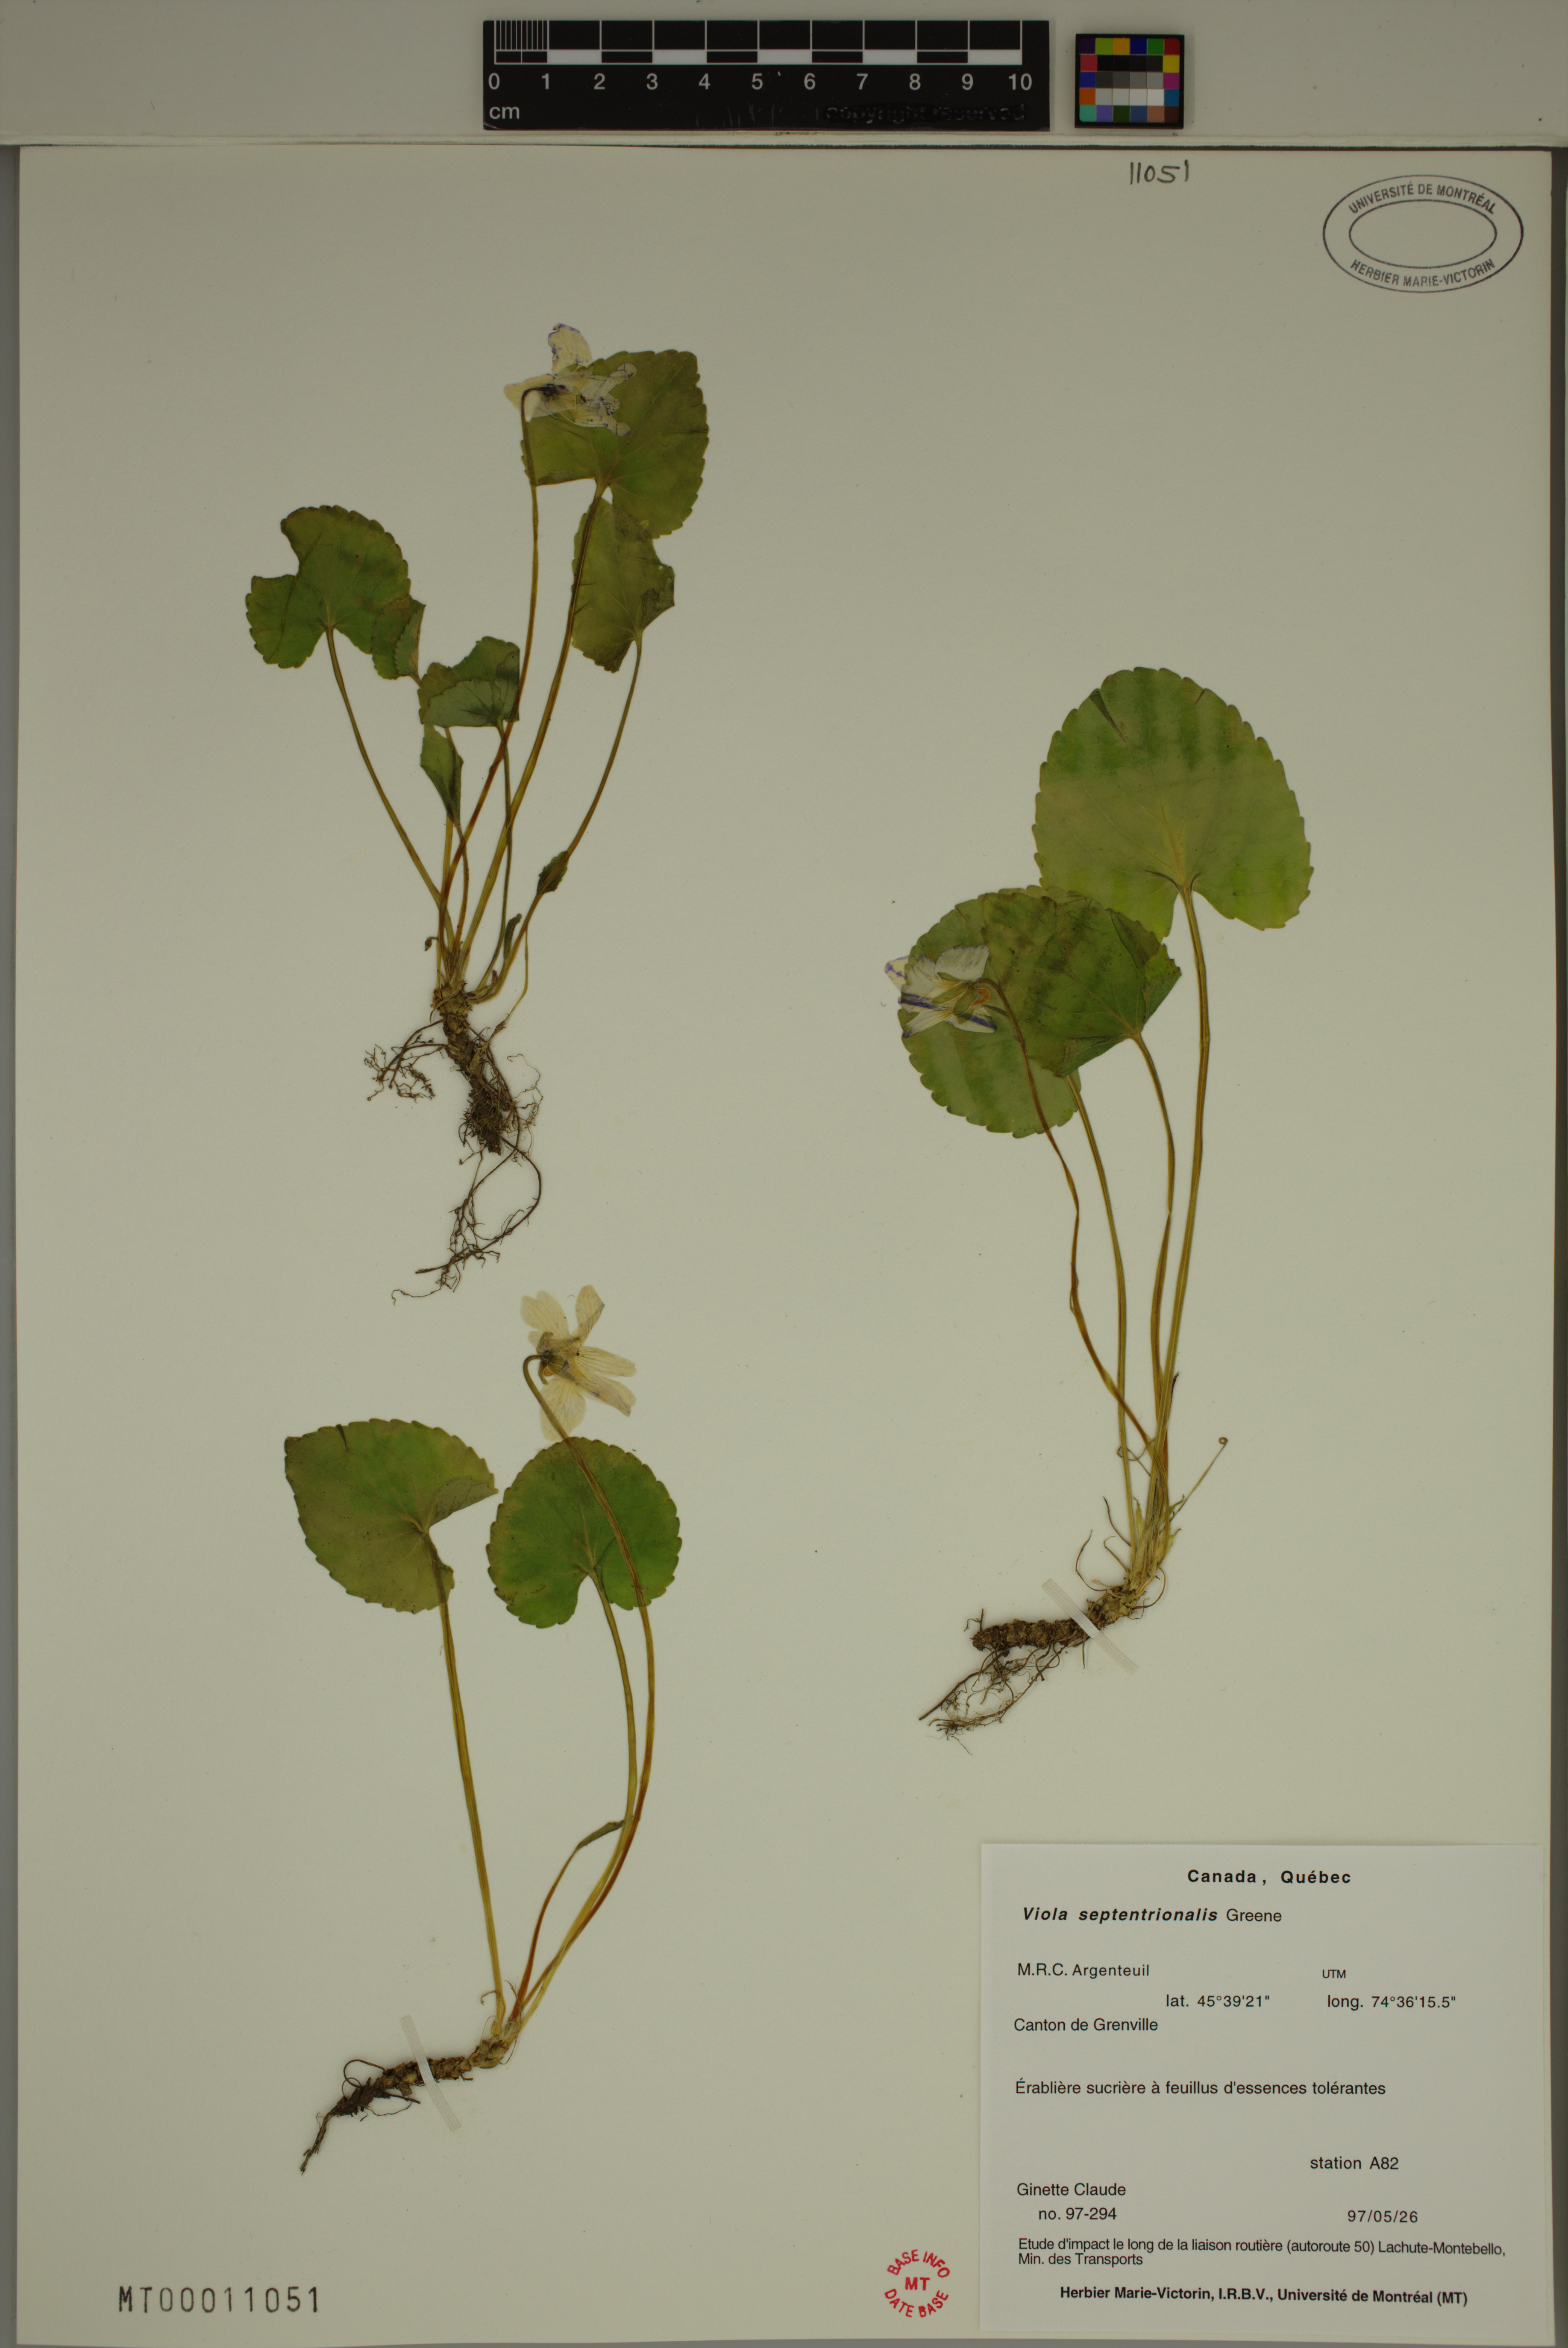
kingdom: Plantae
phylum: Tracheophyta
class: Magnoliopsida
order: Malpighiales
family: Violaceae
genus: Viola
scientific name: Viola sororia
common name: Dooryard violet
